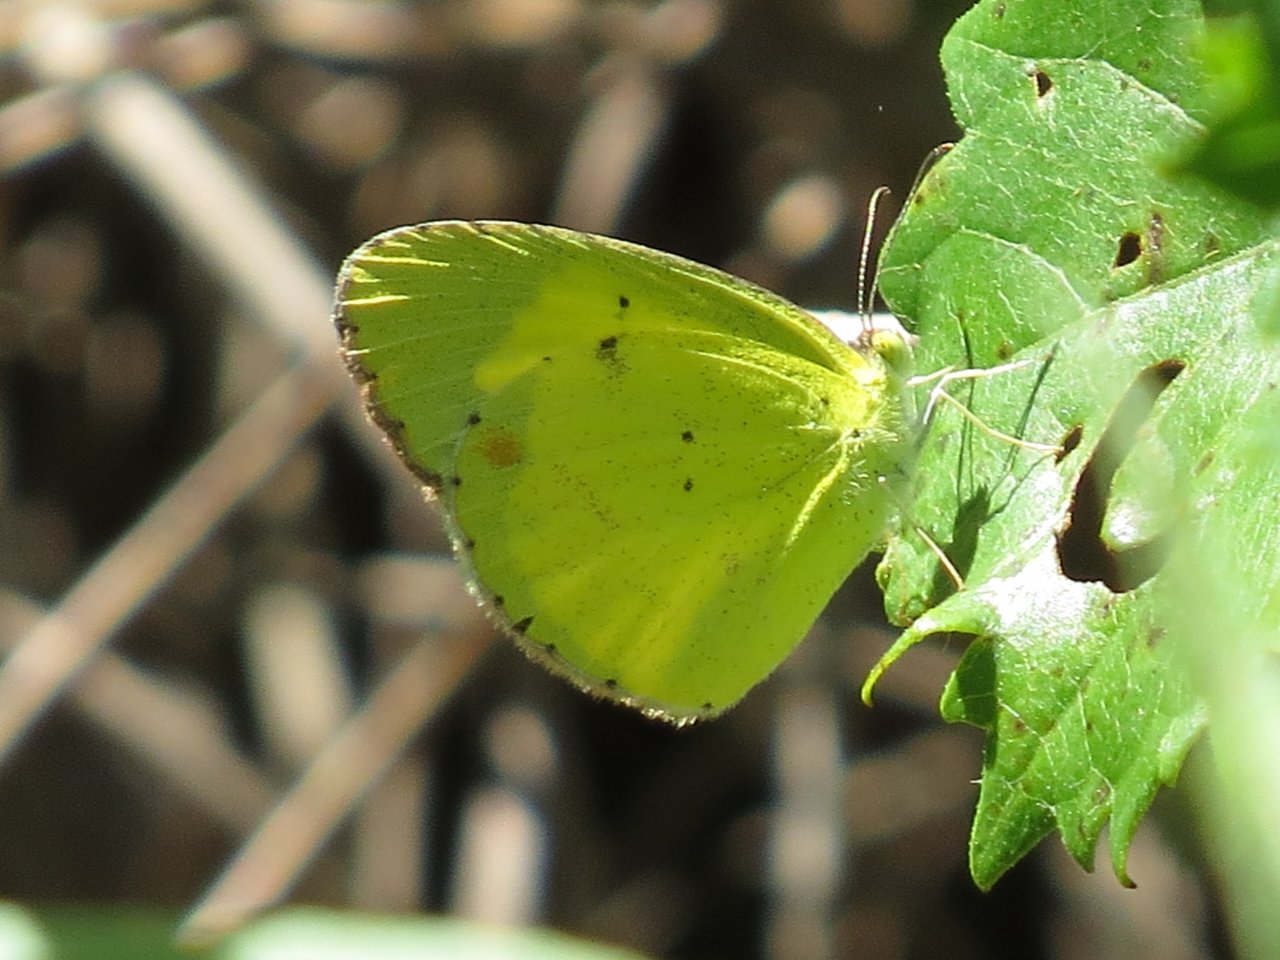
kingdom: Animalia
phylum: Arthropoda
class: Insecta
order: Lepidoptera
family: Pieridae
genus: Pyrisitia
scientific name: Pyrisitia lisa
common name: Little Yellow
